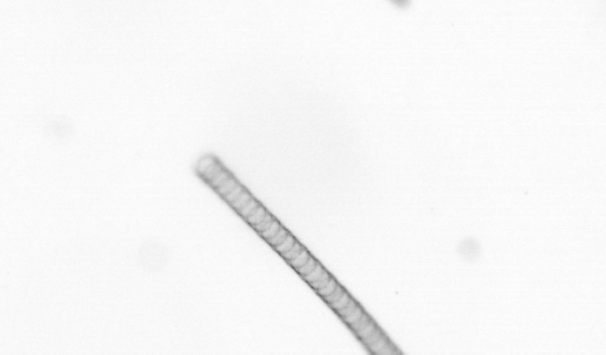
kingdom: Chromista
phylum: Ochrophyta
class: Bacillariophyceae
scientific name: Bacillariophyceae
